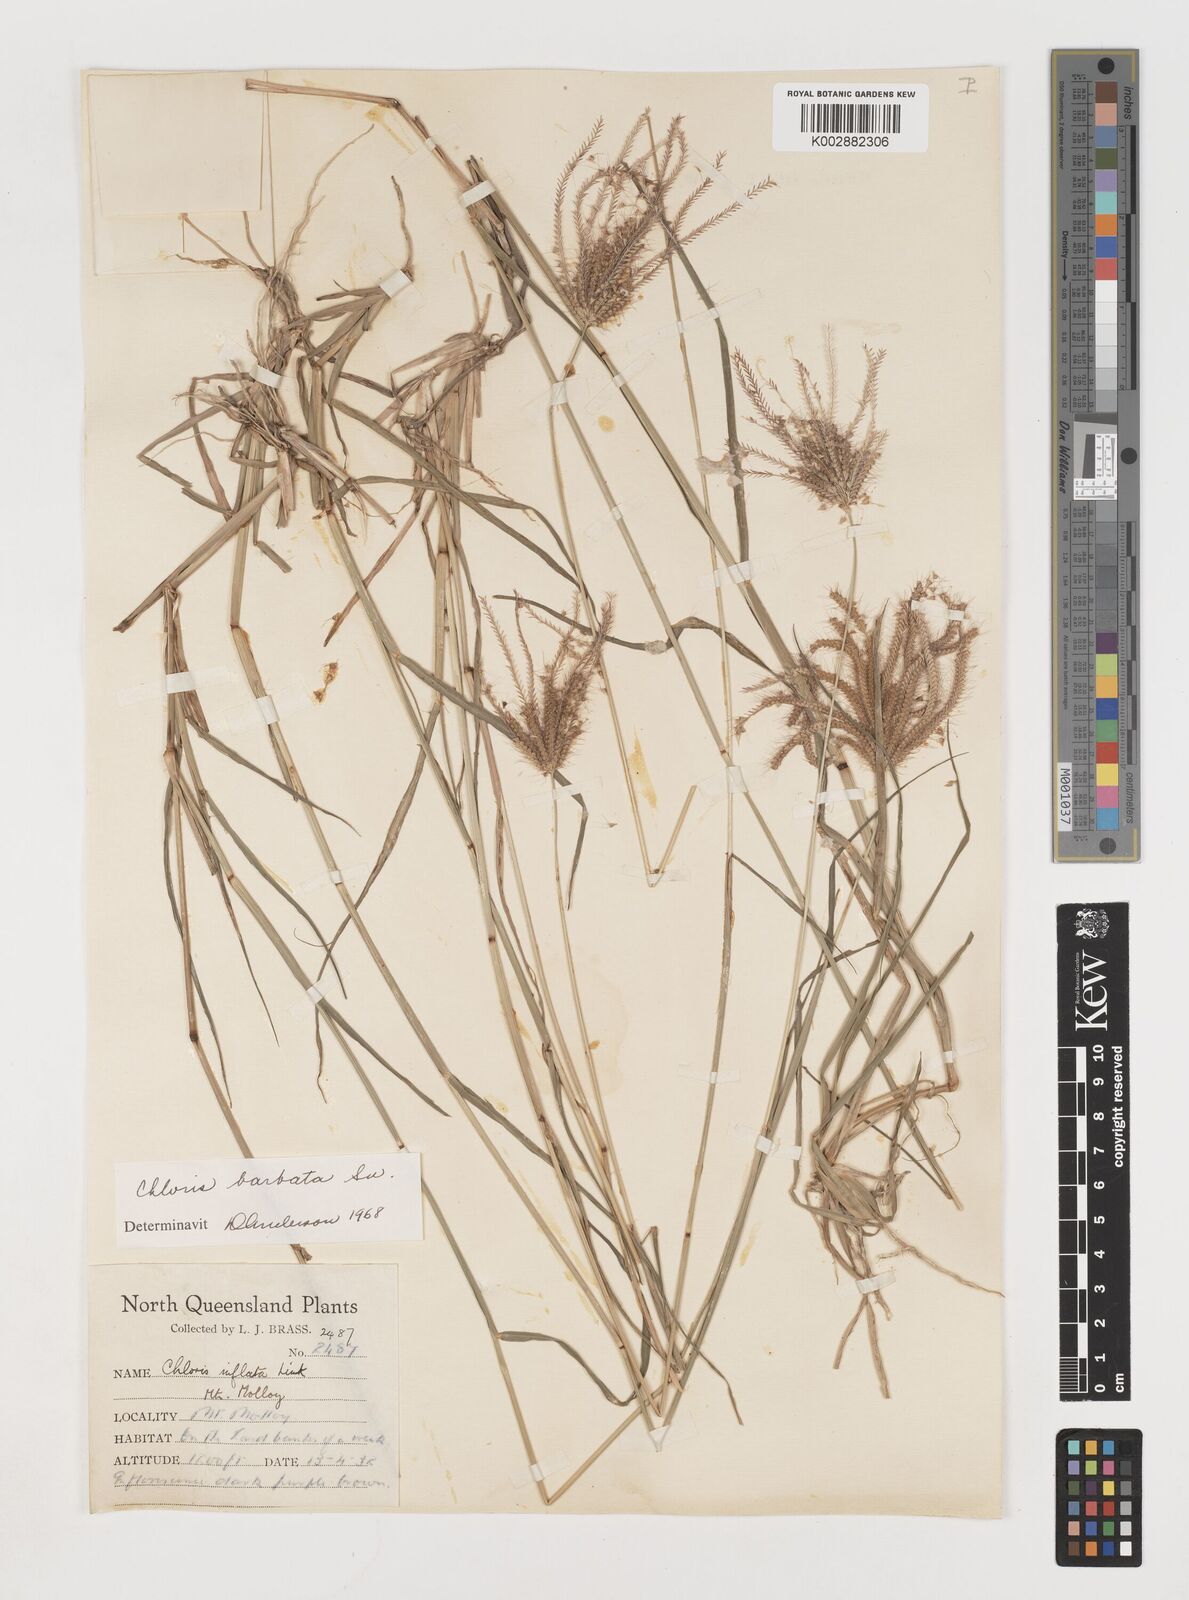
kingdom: Plantae
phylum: Tracheophyta
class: Liliopsida
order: Poales
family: Poaceae
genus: Chloris
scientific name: Chloris barbata
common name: Swollen fingergrass
